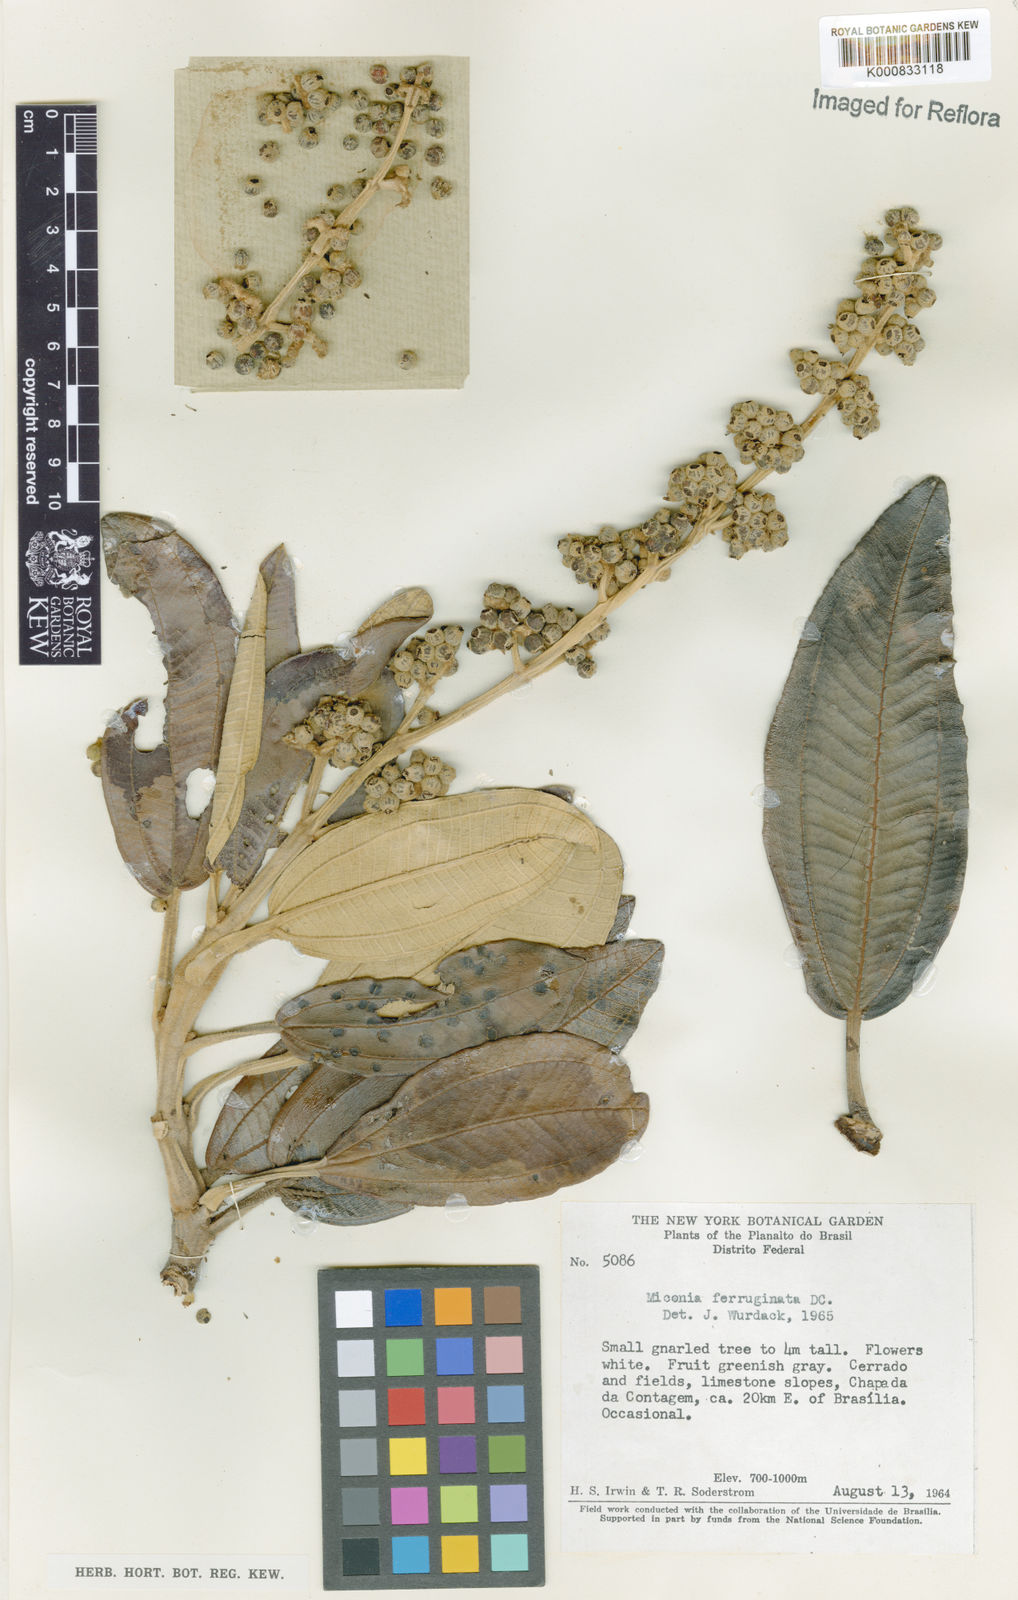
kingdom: Plantae
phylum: Tracheophyta
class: Magnoliopsida
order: Myrtales
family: Melastomataceae
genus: Miconia
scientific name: Miconia ferruginata
